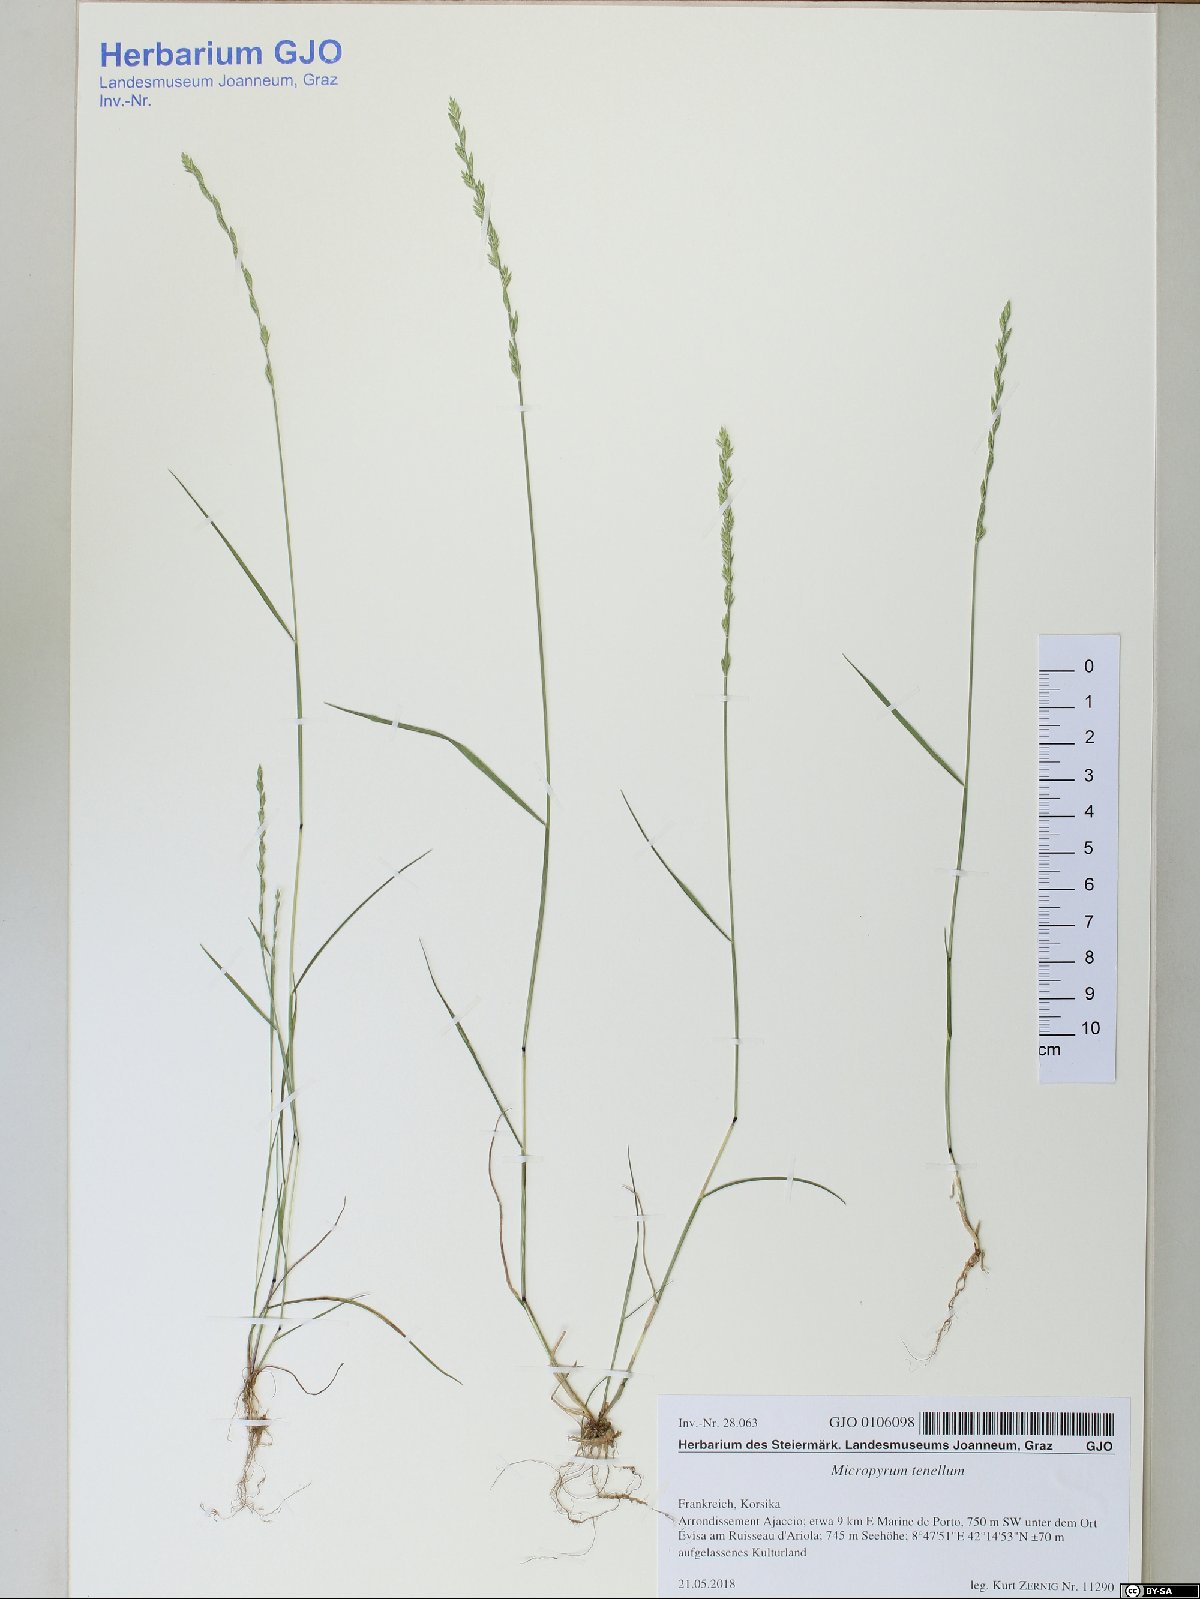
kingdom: Plantae
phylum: Tracheophyta
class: Liliopsida
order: Poales
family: Poaceae
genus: Festuca
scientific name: Festuca lachenalii
